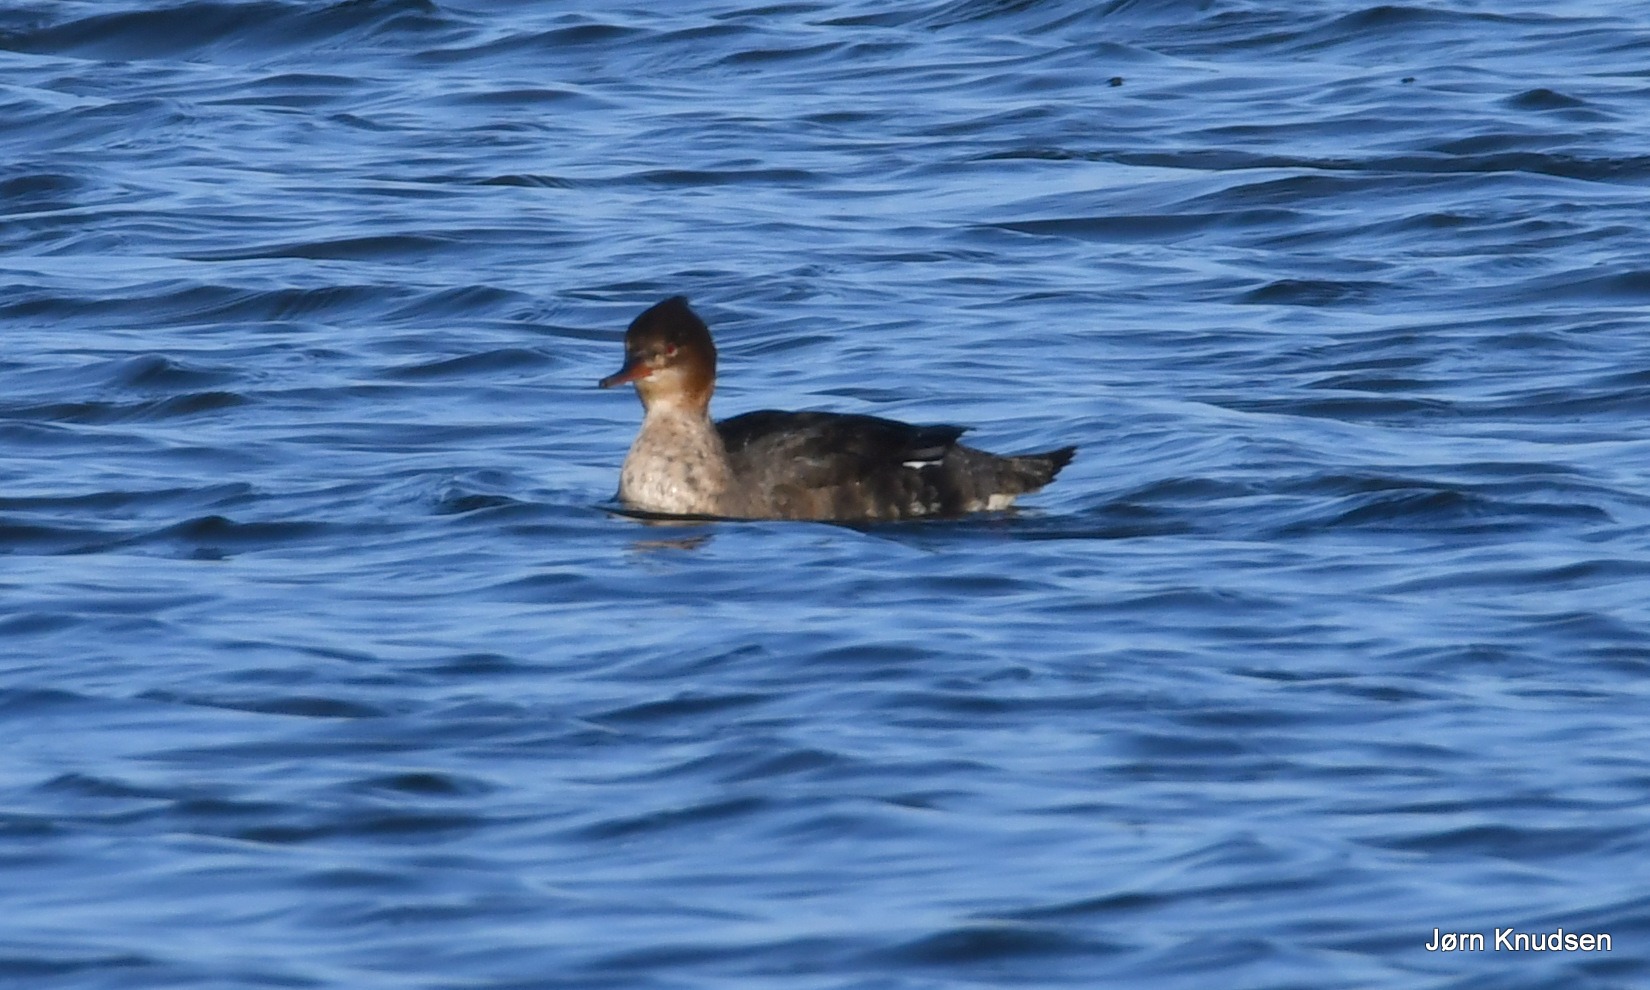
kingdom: Animalia
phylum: Chordata
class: Aves
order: Anseriformes
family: Anatidae
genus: Mergus
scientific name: Mergus serrator
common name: Toppet skallesluger
